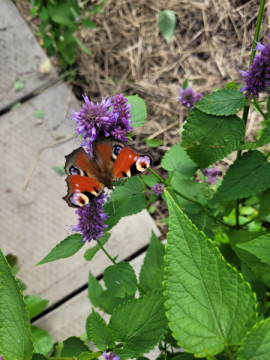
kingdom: Animalia
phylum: Arthropoda
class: Insecta
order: Lepidoptera
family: Nymphalidae
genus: Aglais
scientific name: Aglais io
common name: European Peacock
